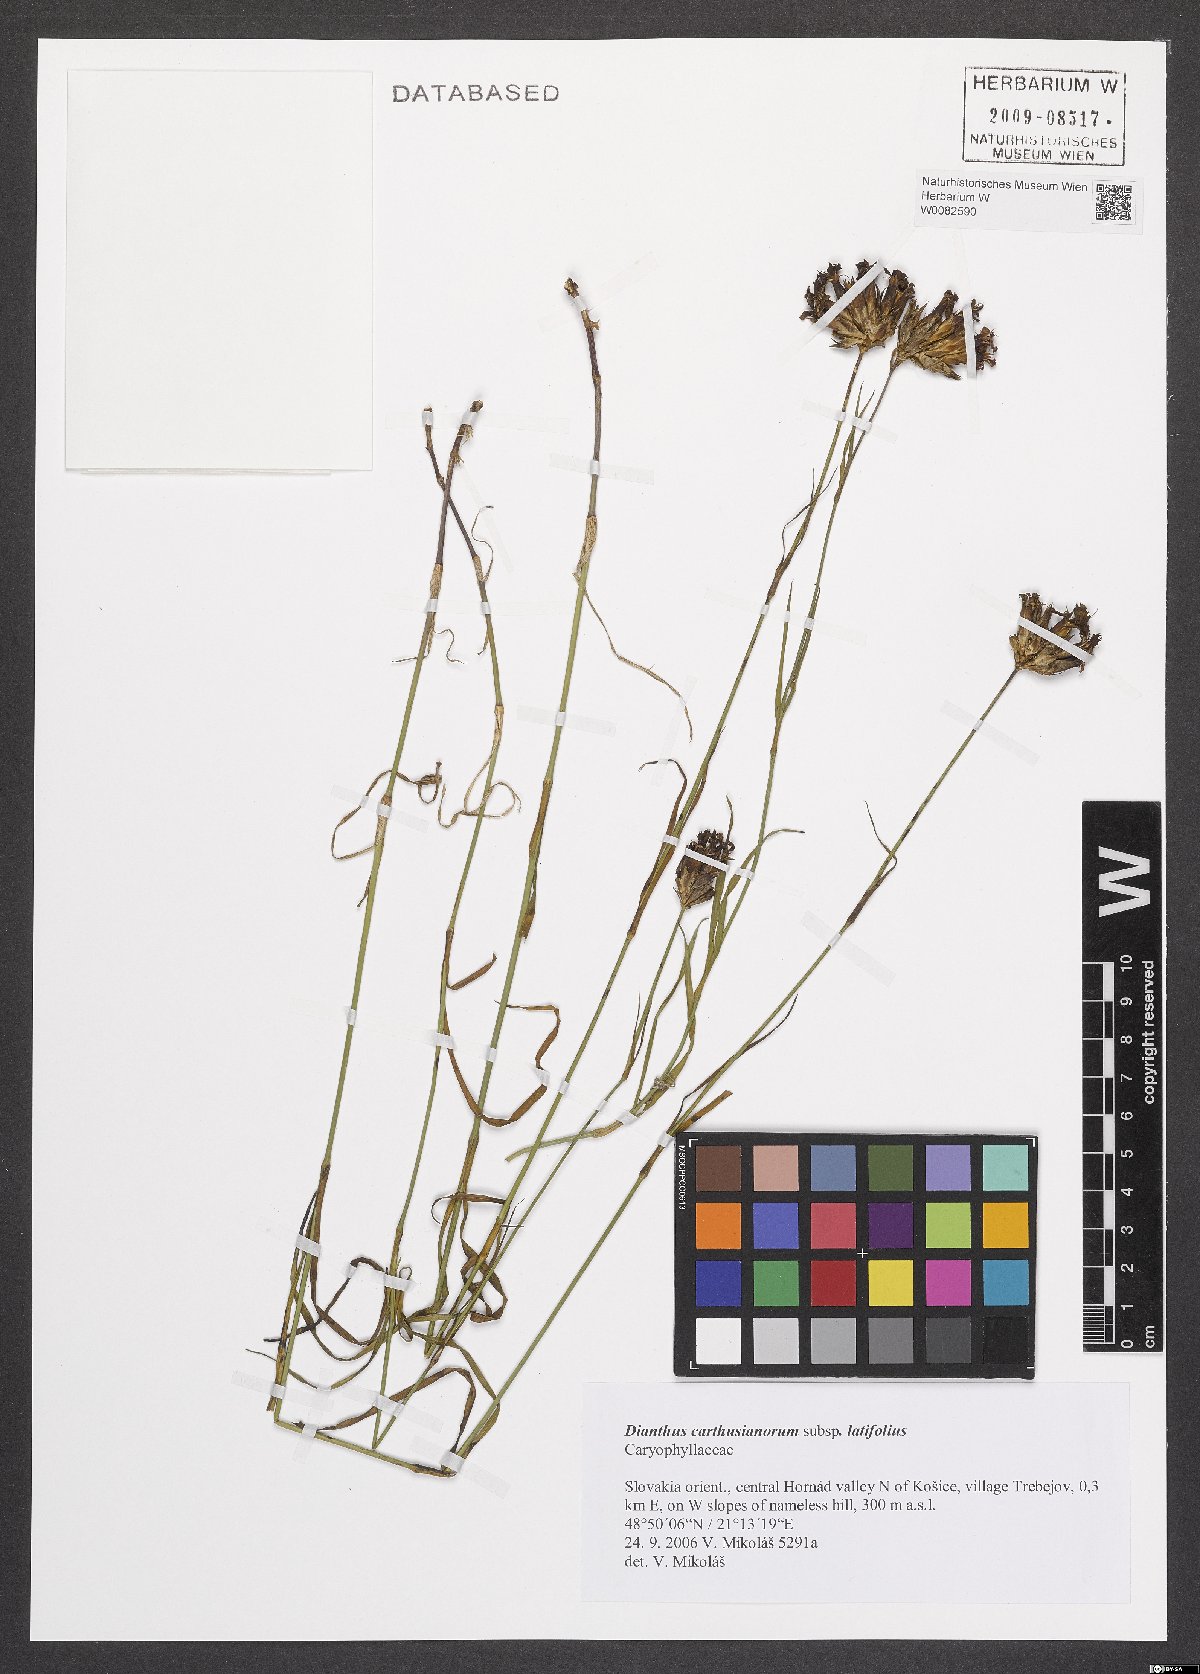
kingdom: Plantae
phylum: Tracheophyta
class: Magnoliopsida
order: Caryophyllales
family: Caryophyllaceae
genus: Dianthus
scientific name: Dianthus carthusianorum
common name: Carthusian pink
